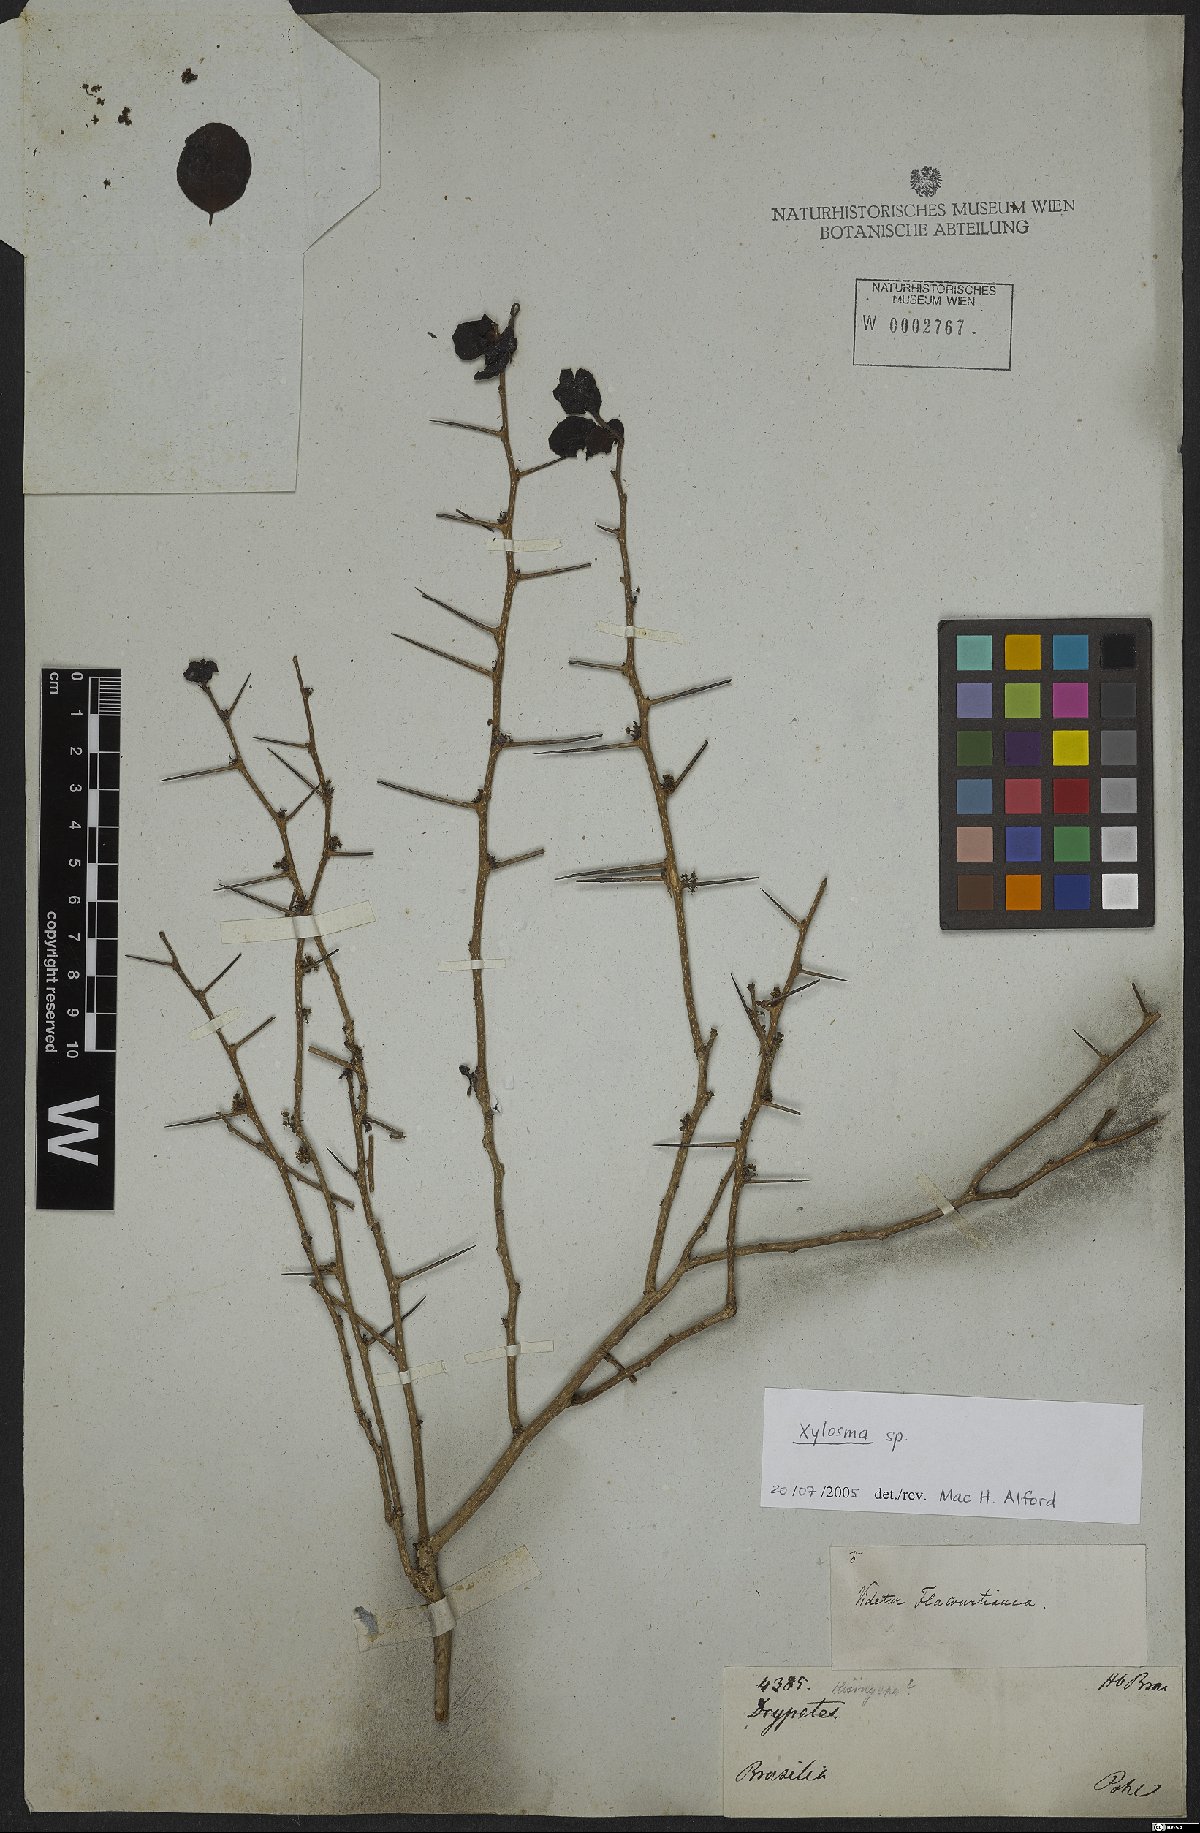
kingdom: Plantae
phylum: Tracheophyta
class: Magnoliopsida
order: Malpighiales
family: Salicaceae
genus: Xylosma
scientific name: Xylosma
